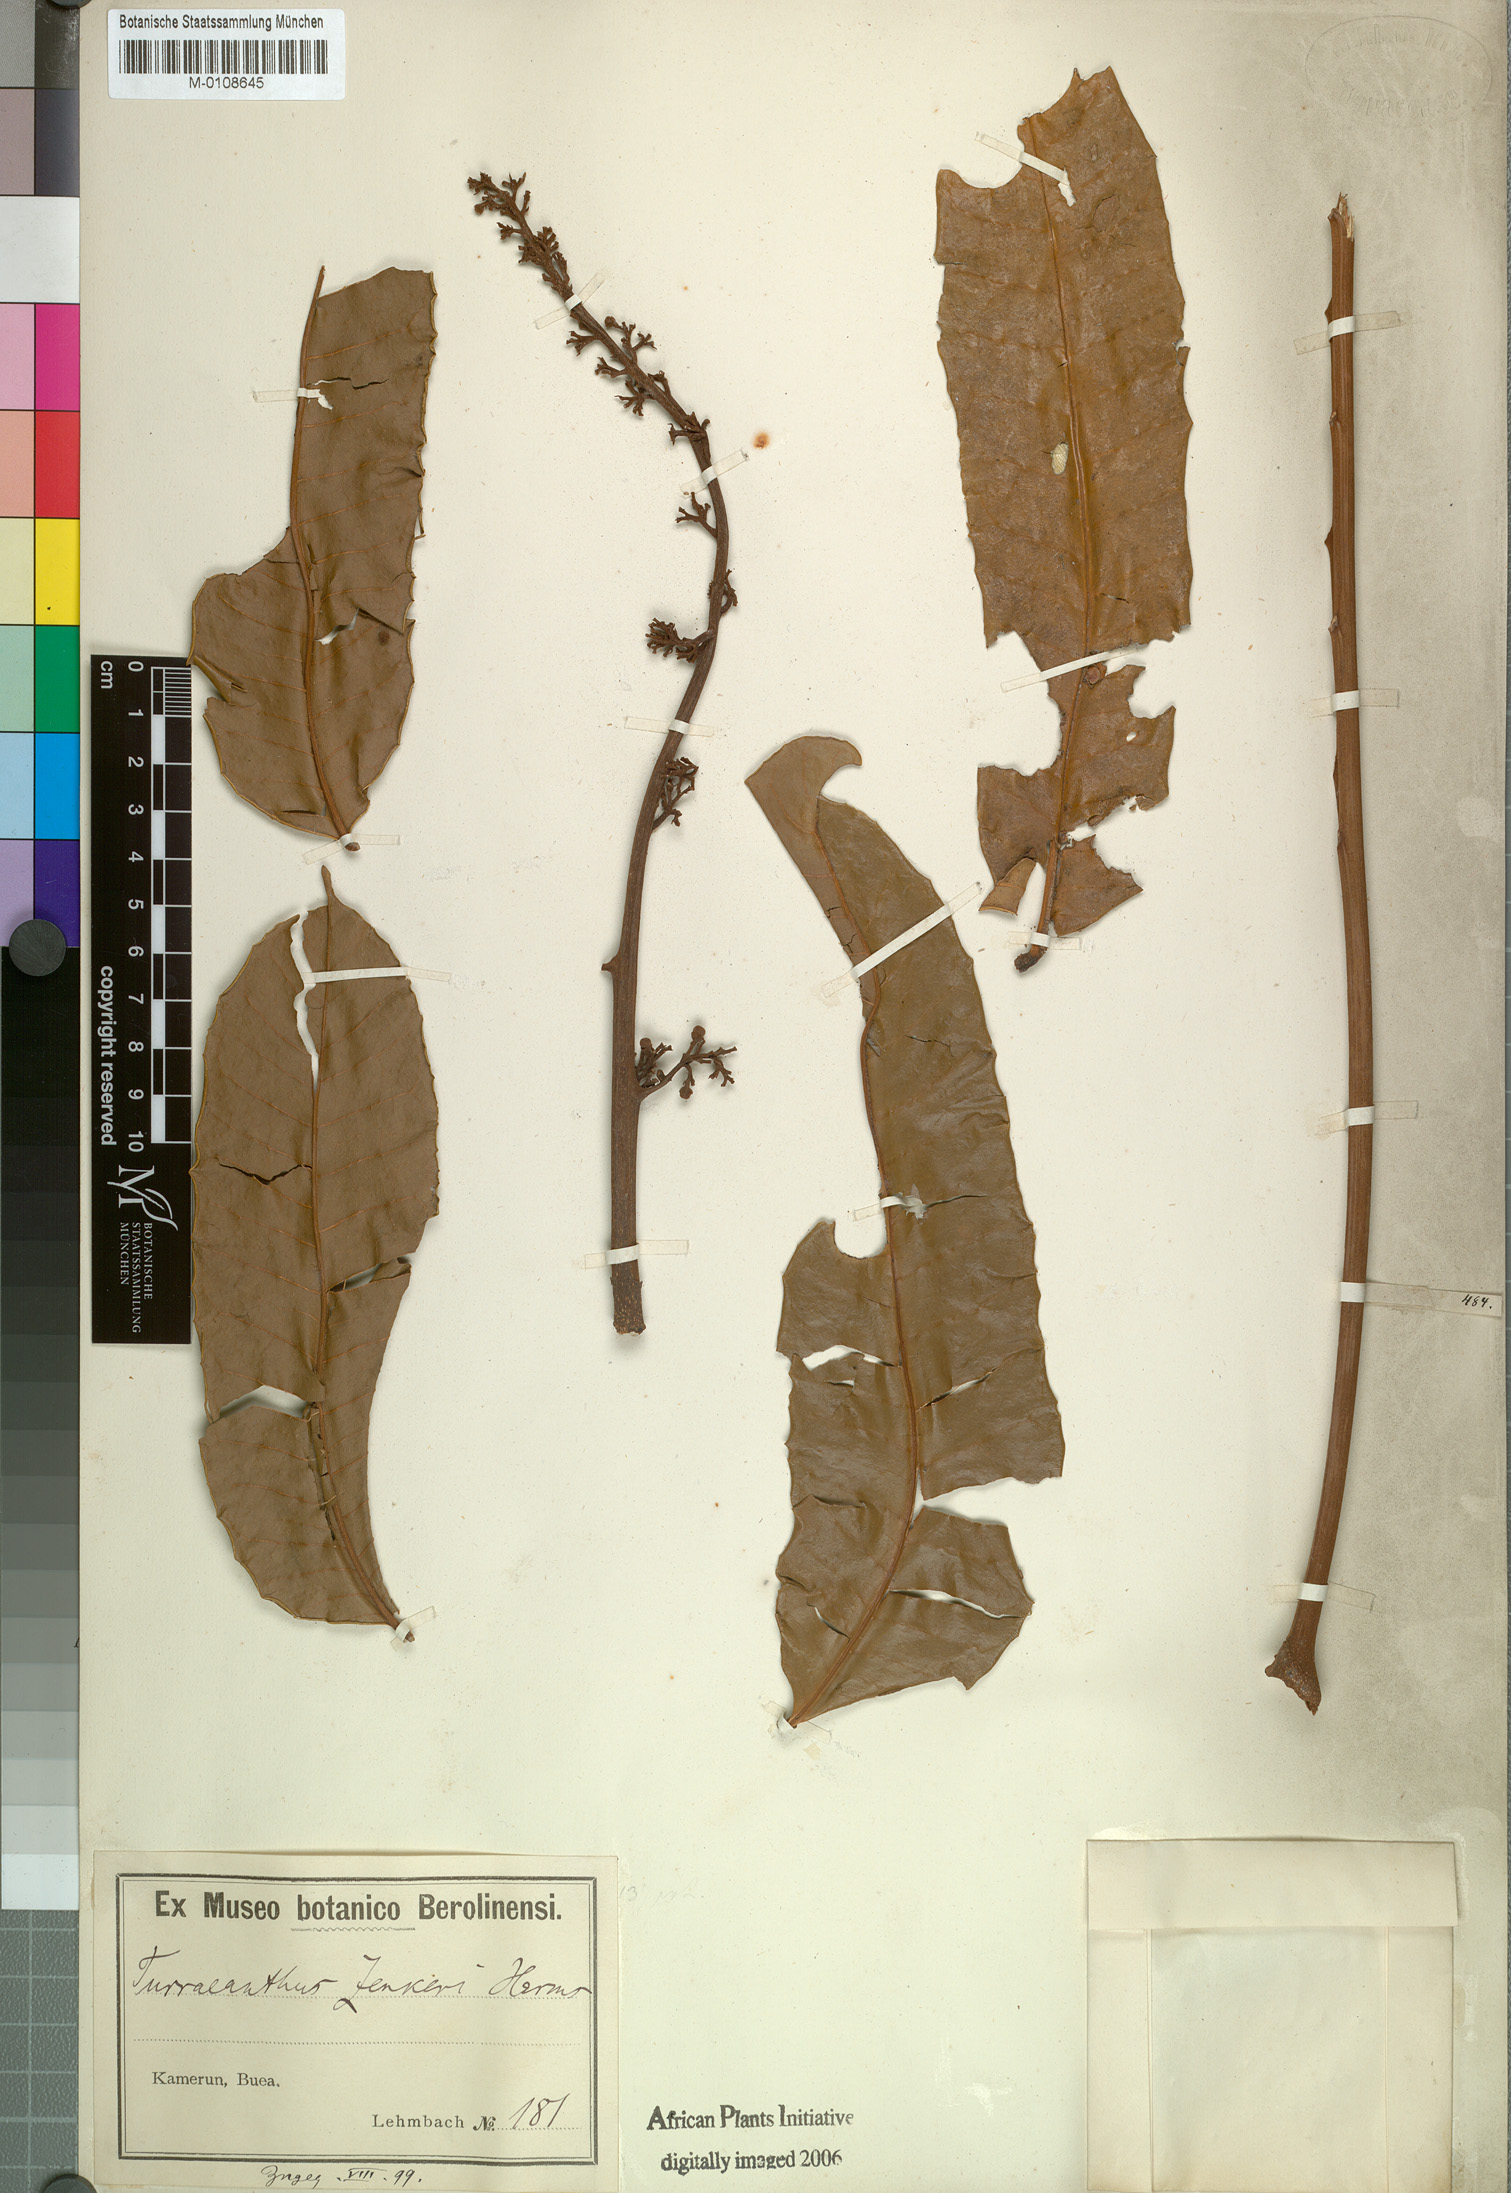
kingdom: Plantae
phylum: Tracheophyta
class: Magnoliopsida
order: Sapindales
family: Meliaceae
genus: Turraeanthus
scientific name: Turraeanthus africanus
